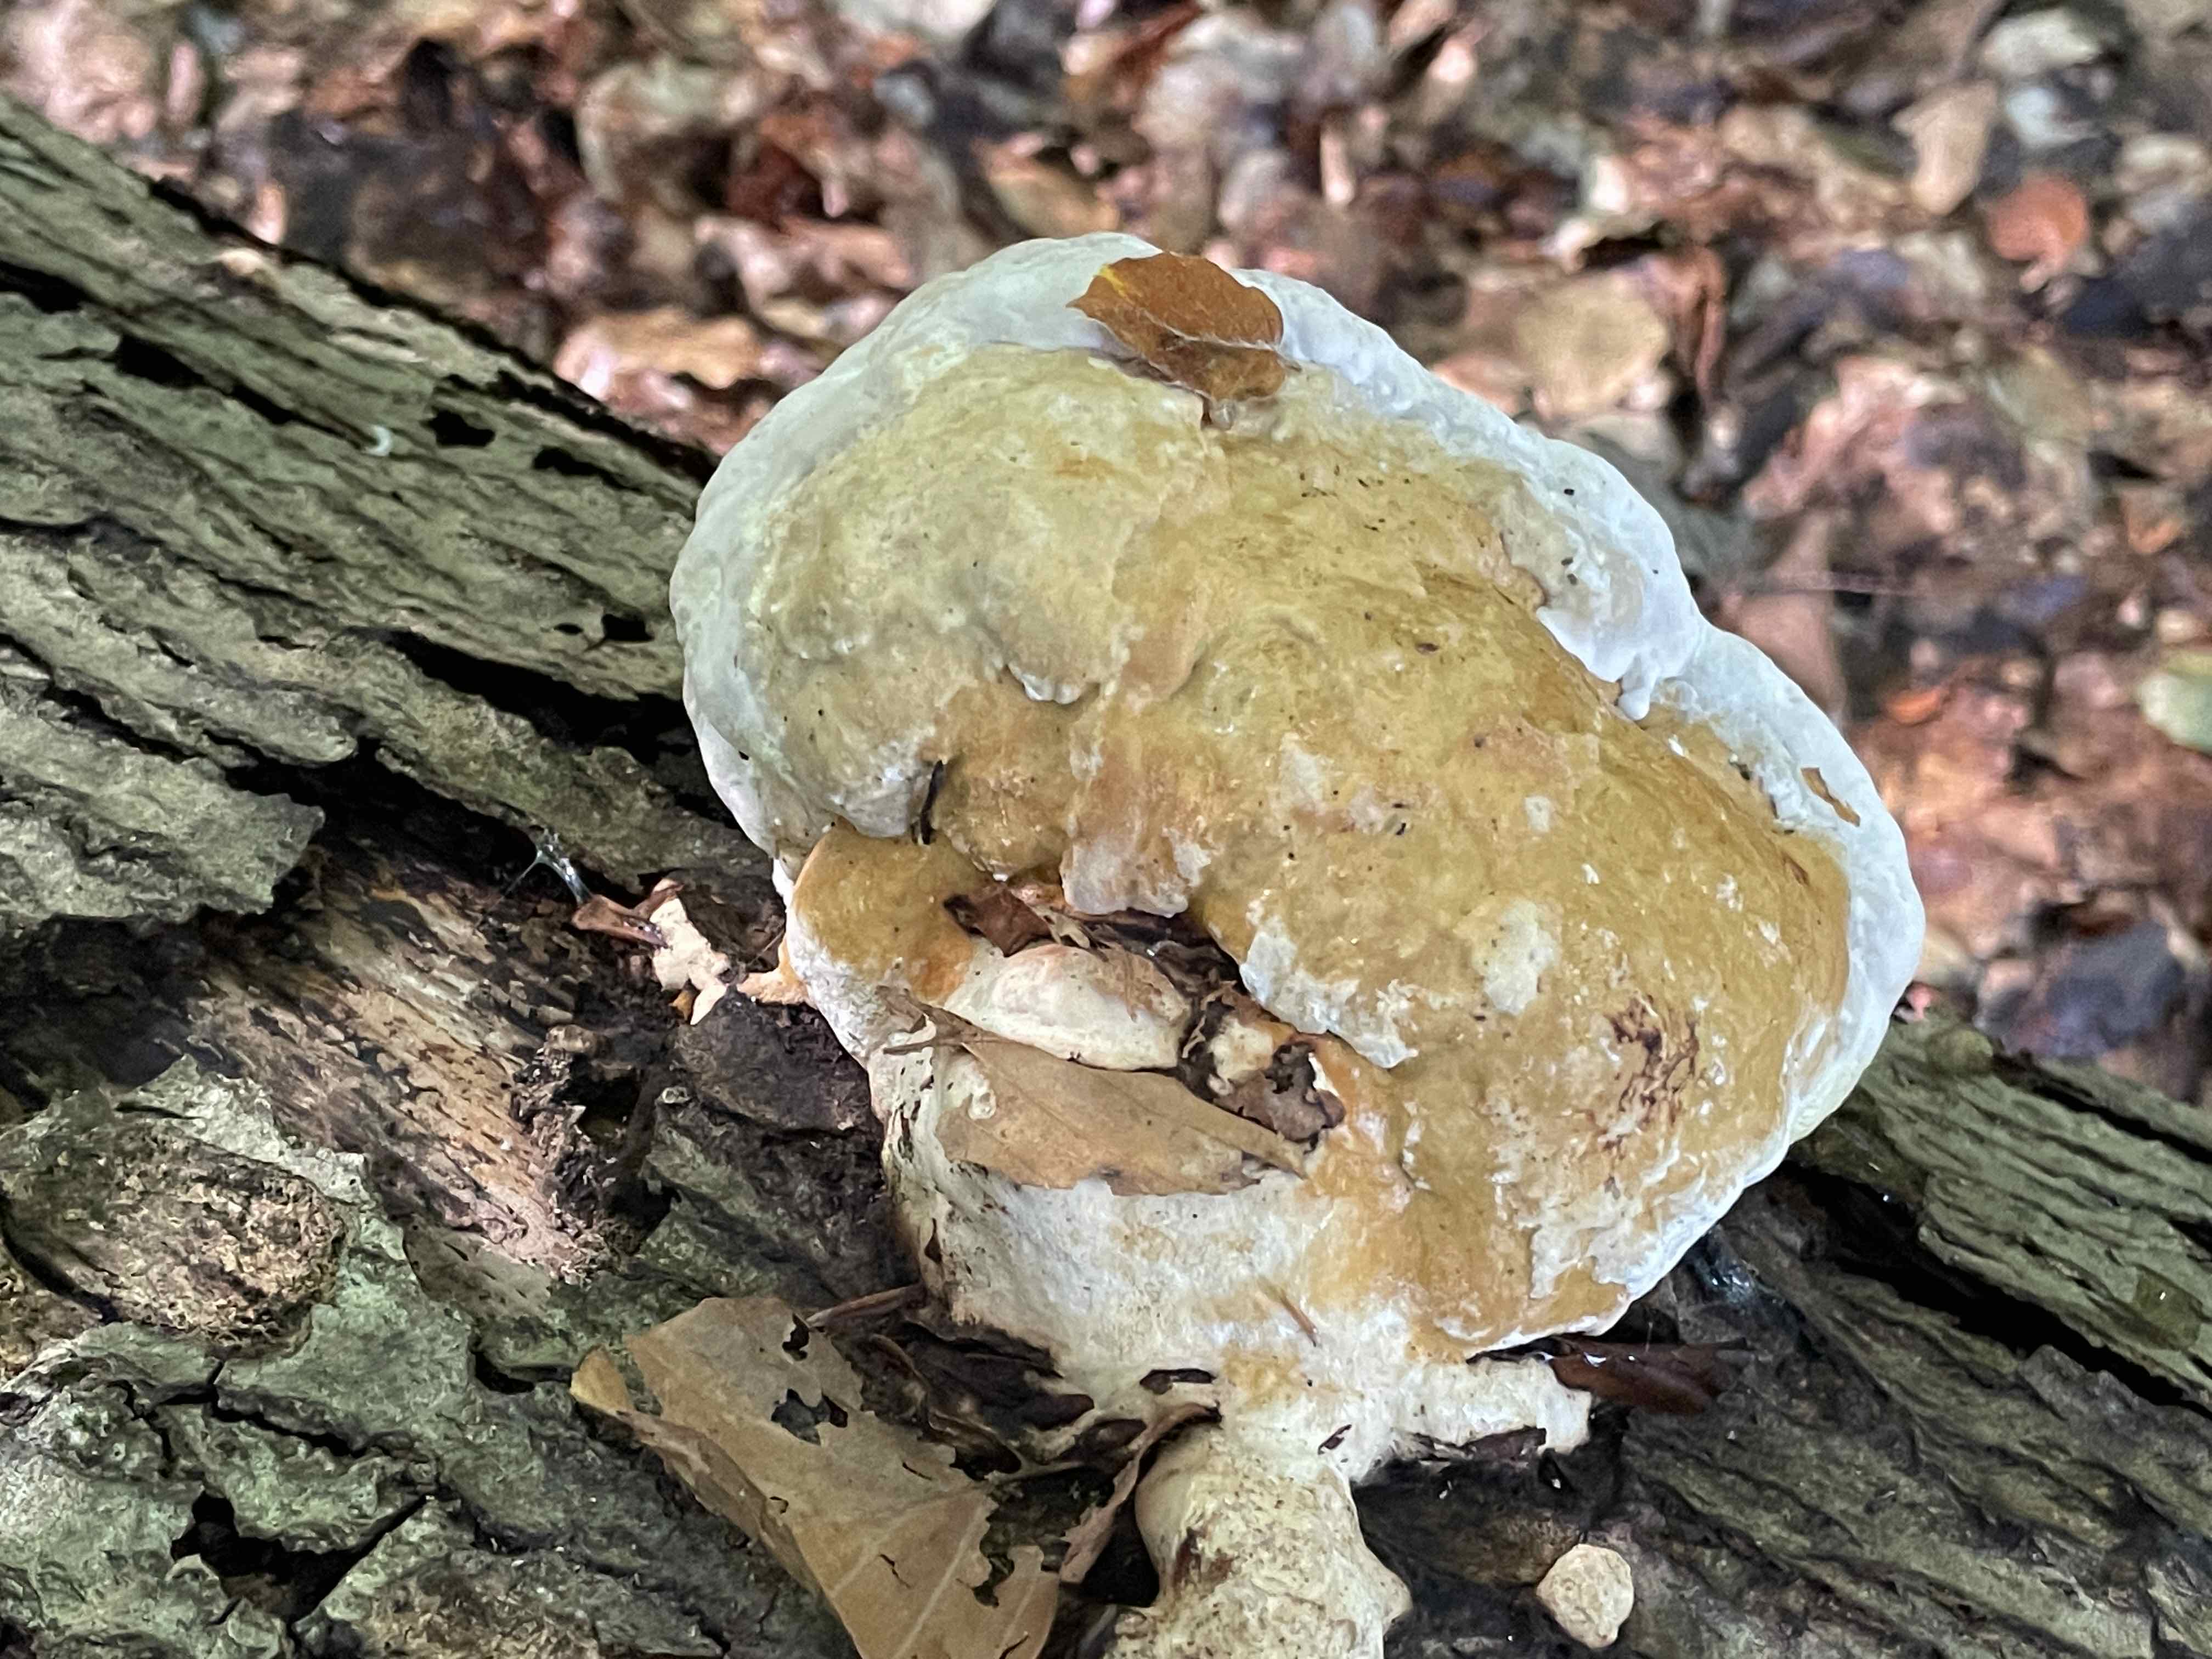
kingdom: Fungi
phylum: Basidiomycota
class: Agaricomycetes
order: Polyporales
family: Fomitopsidaceae
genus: Fomitopsis
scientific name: Fomitopsis pinicola
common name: randbæltet hovporesvamp
